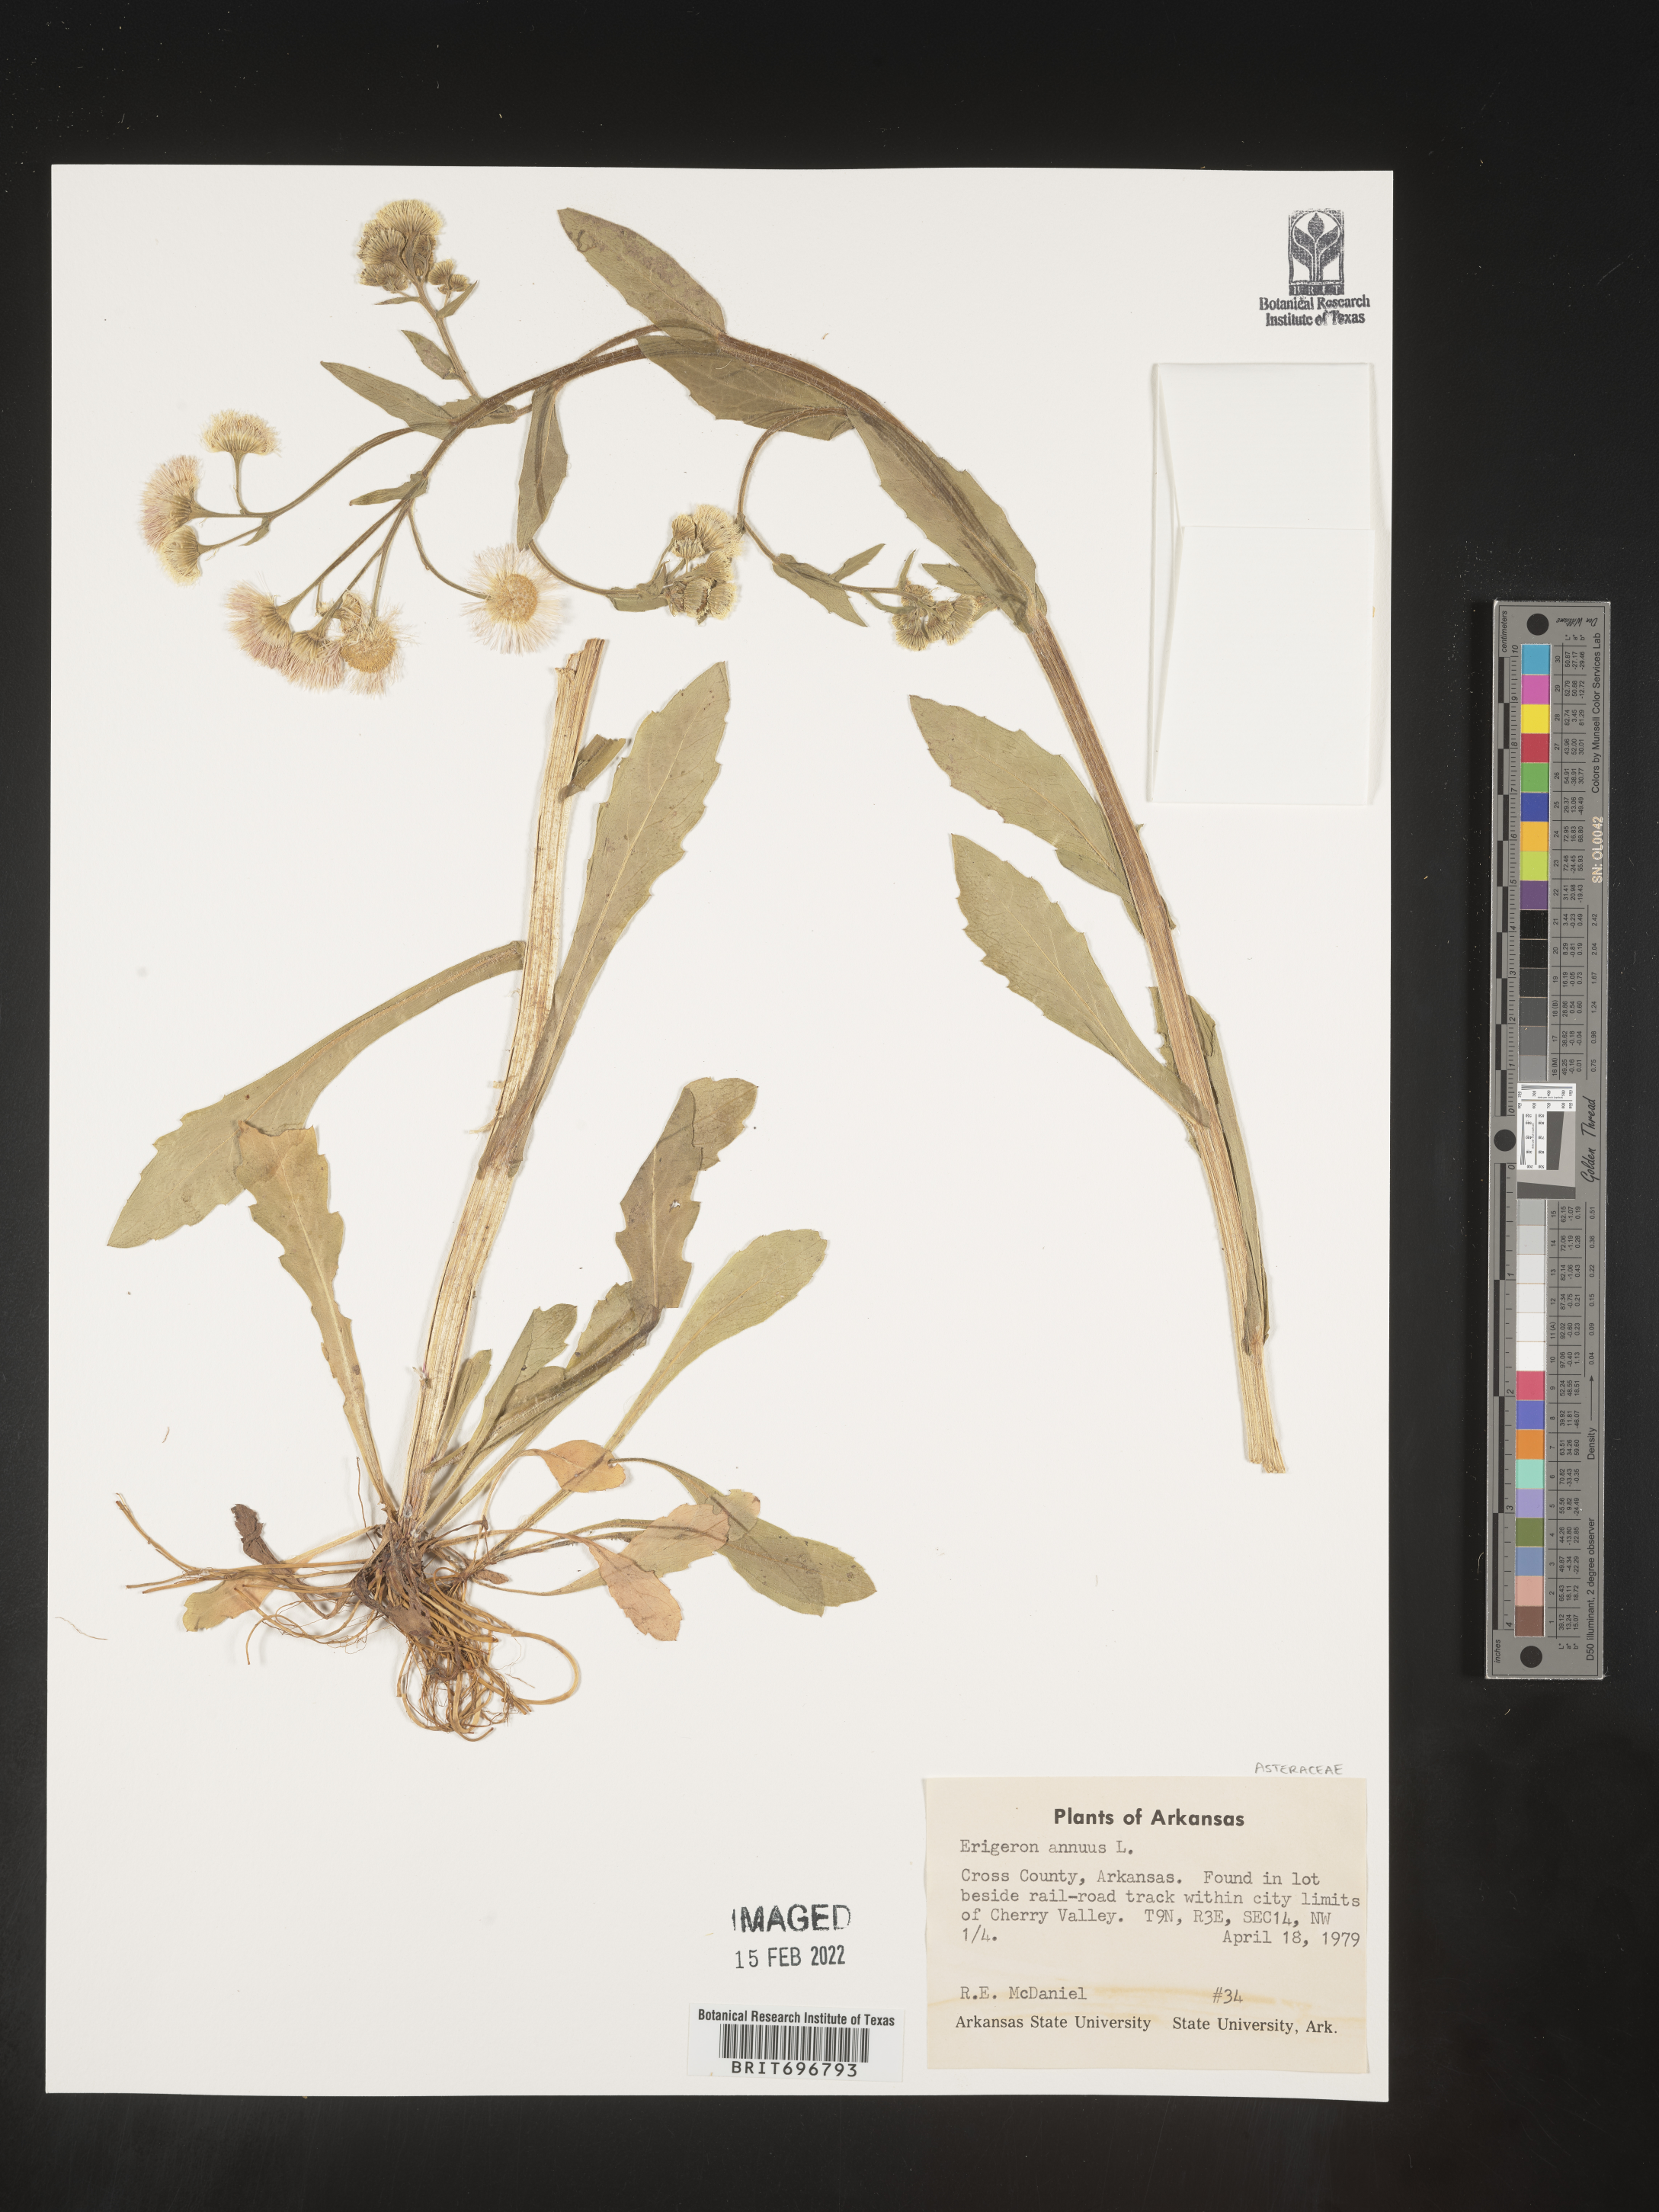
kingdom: Plantae
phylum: Tracheophyta
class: Magnoliopsida
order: Asterales
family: Asteraceae
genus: Erigeron
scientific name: Erigeron annuus
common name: Tall fleabane
